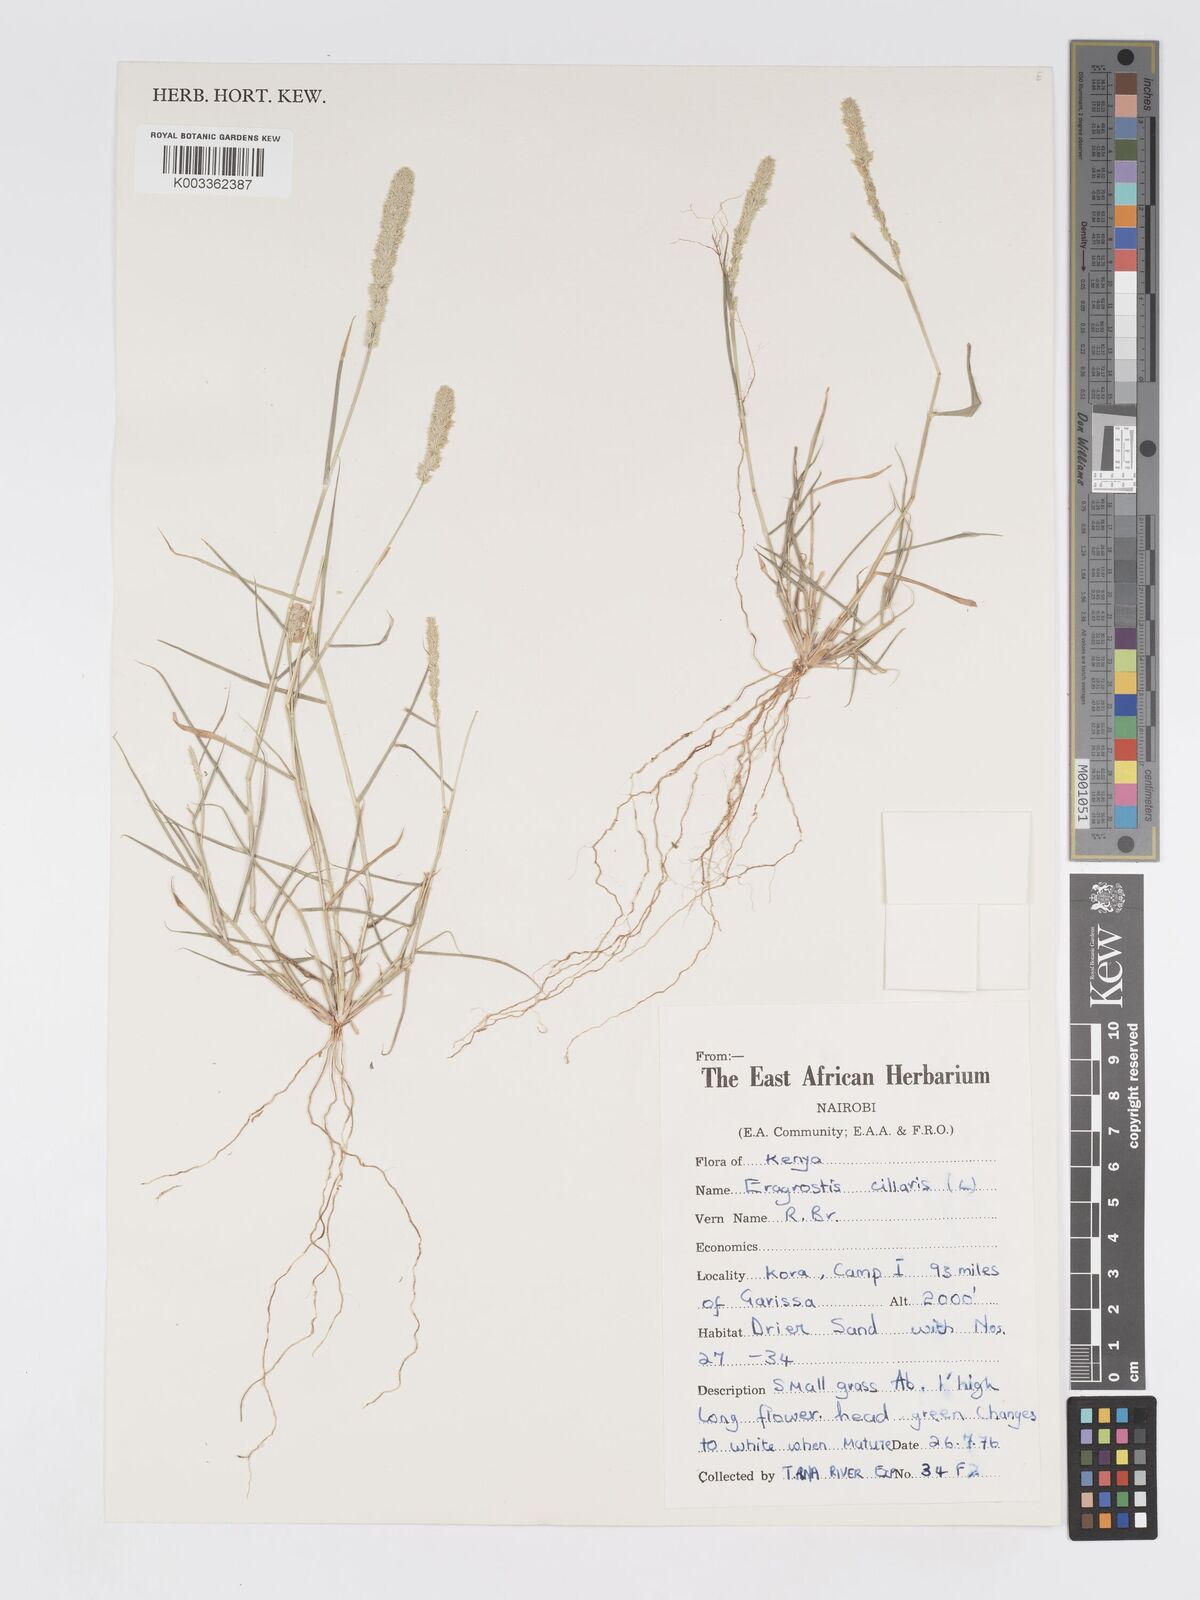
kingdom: Plantae
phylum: Tracheophyta
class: Liliopsida
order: Poales
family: Poaceae
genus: Eragrostis
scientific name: Eragrostis ciliaris
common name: Gophertail lovegrass
